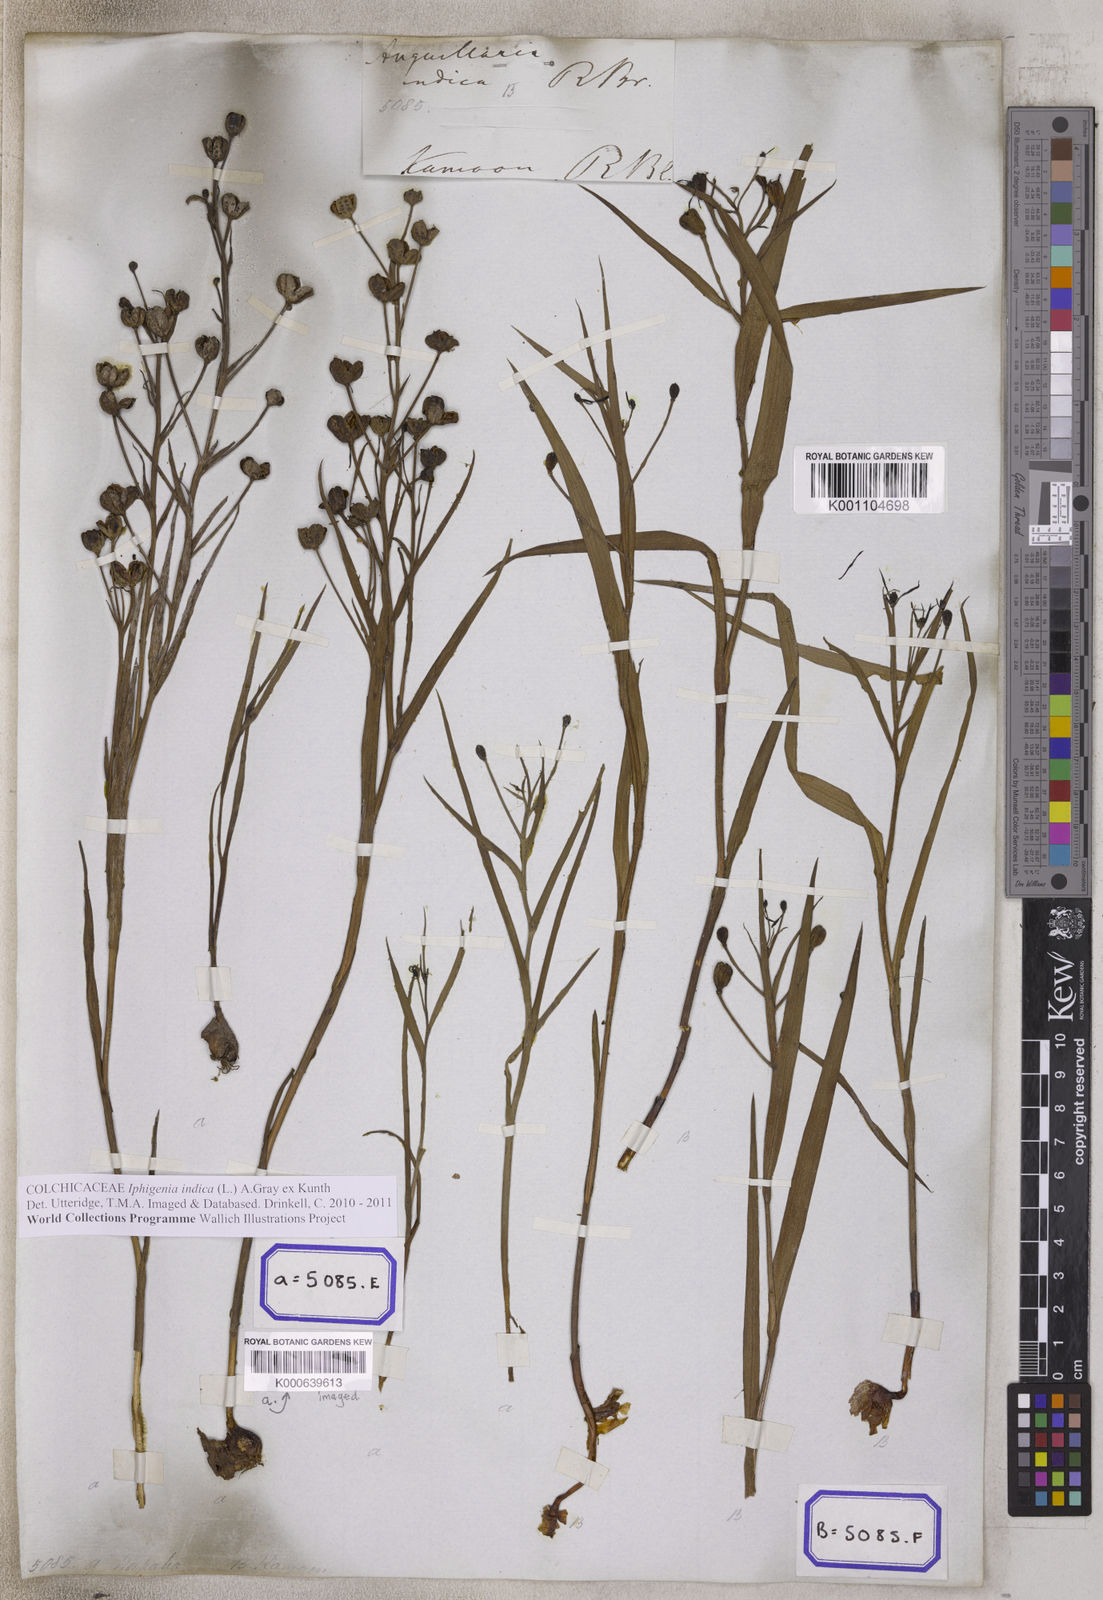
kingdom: Plantae
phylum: Tracheophyta
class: Liliopsida
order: Liliales
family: Colchicaceae
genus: Iphigenia
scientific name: Iphigenia indica
